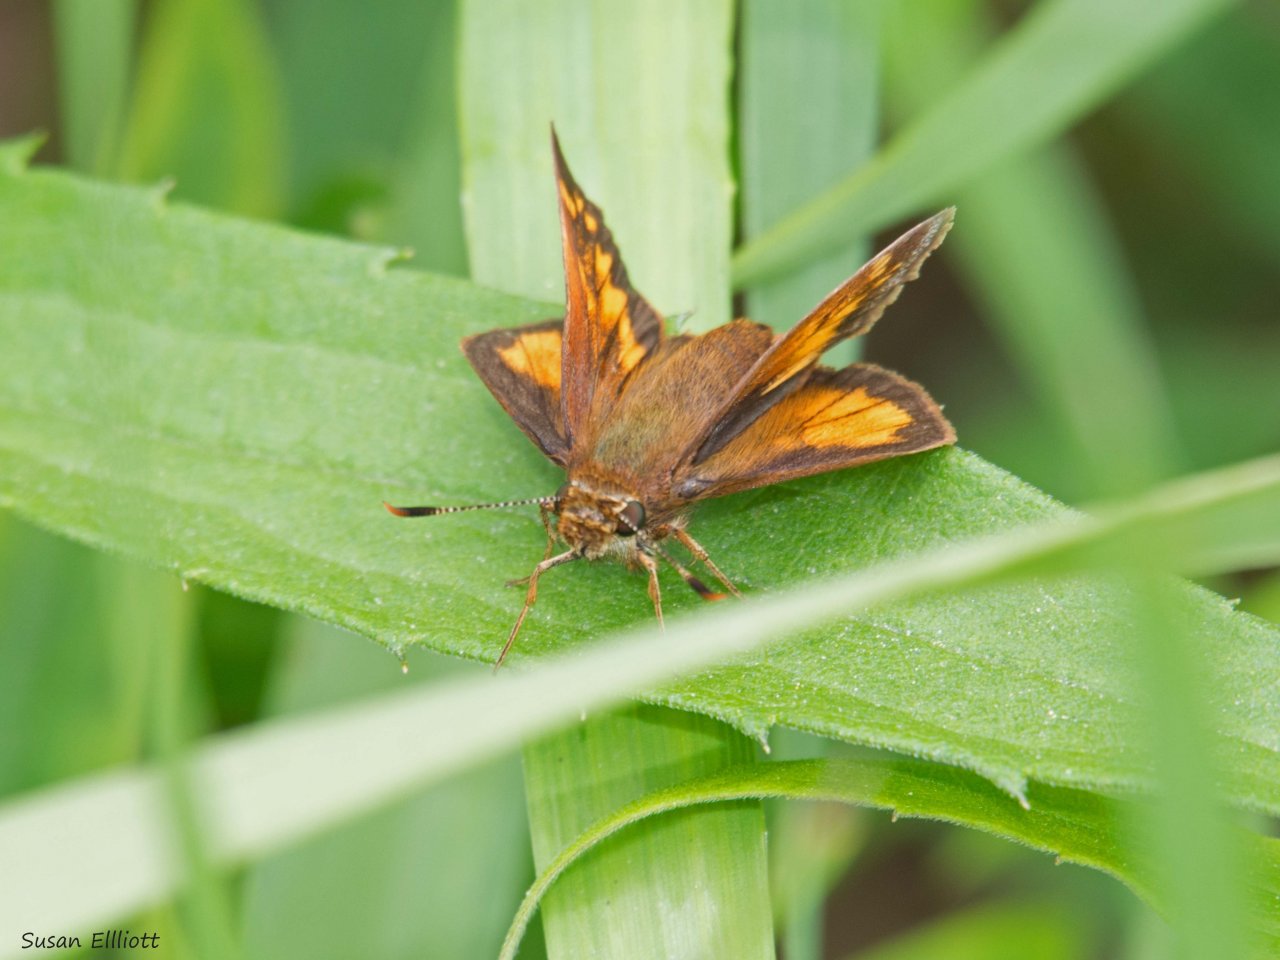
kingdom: Animalia
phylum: Arthropoda
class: Insecta
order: Lepidoptera
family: Hesperiidae
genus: Lon
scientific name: Lon hobomok
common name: Hobomok Skipper
